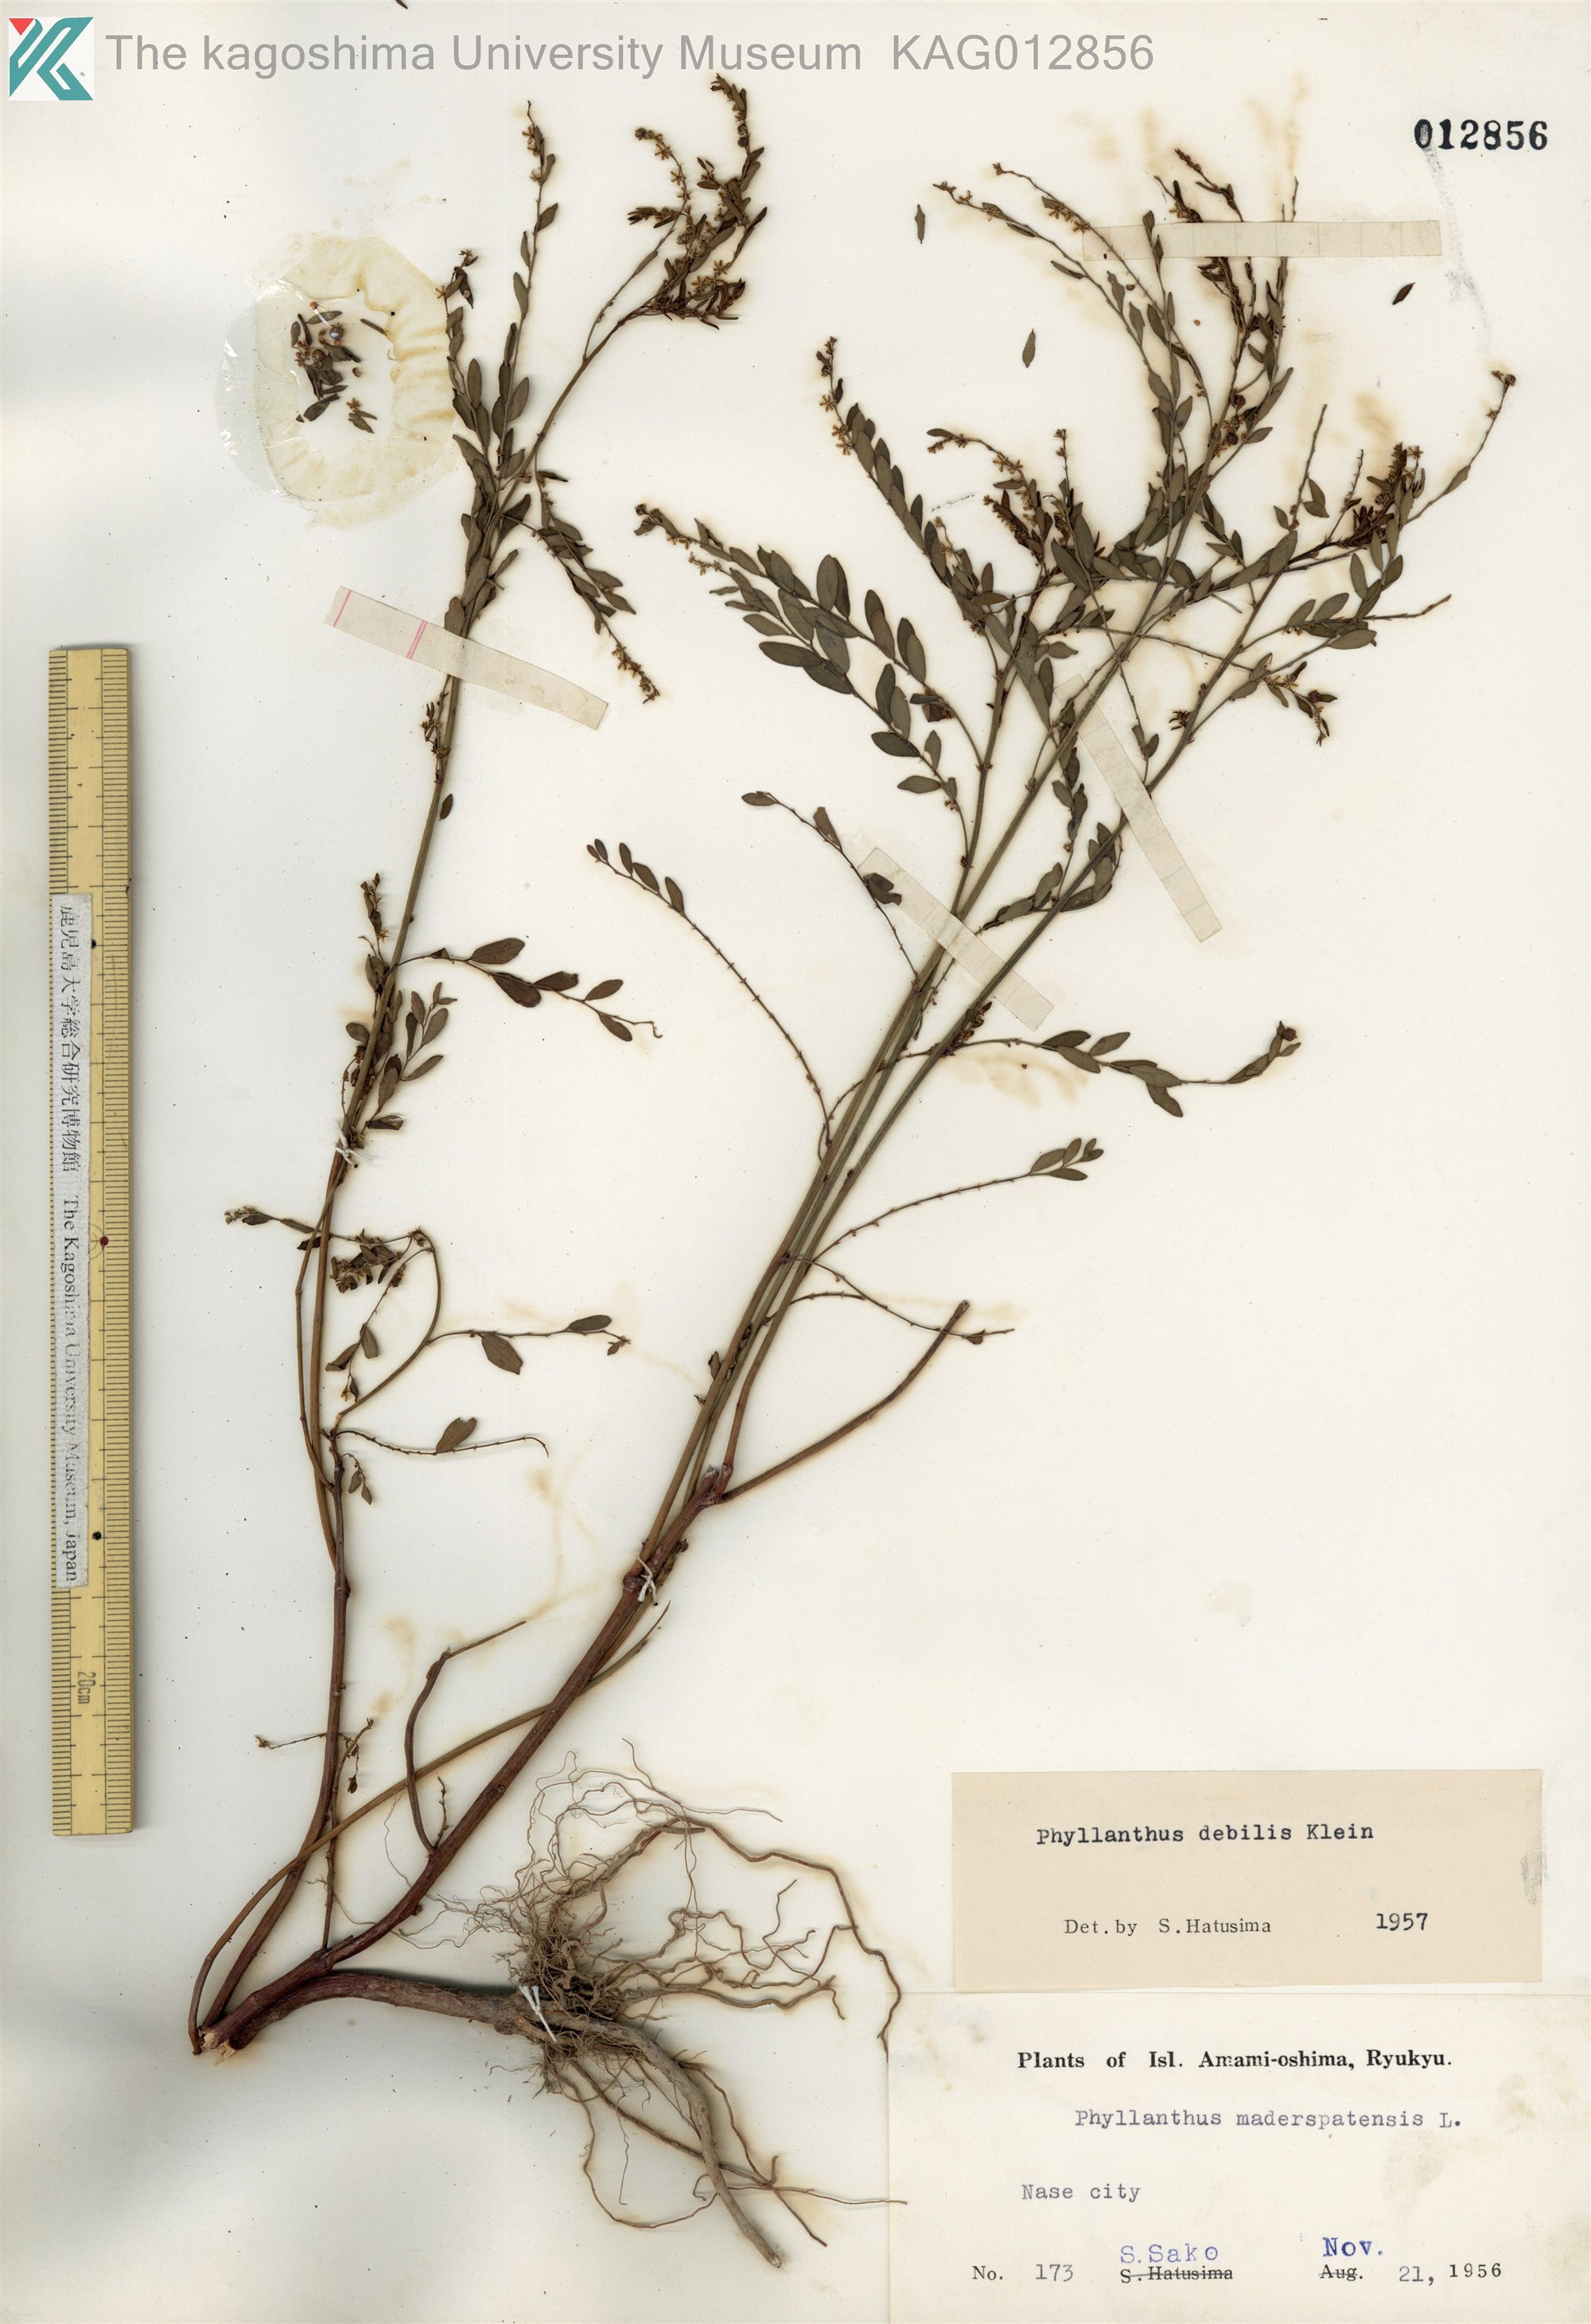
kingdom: Plantae
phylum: Tracheophyta
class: Magnoliopsida
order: Malpighiales
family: Phyllanthaceae
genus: Phyllanthus
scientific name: Phyllanthus debilis
